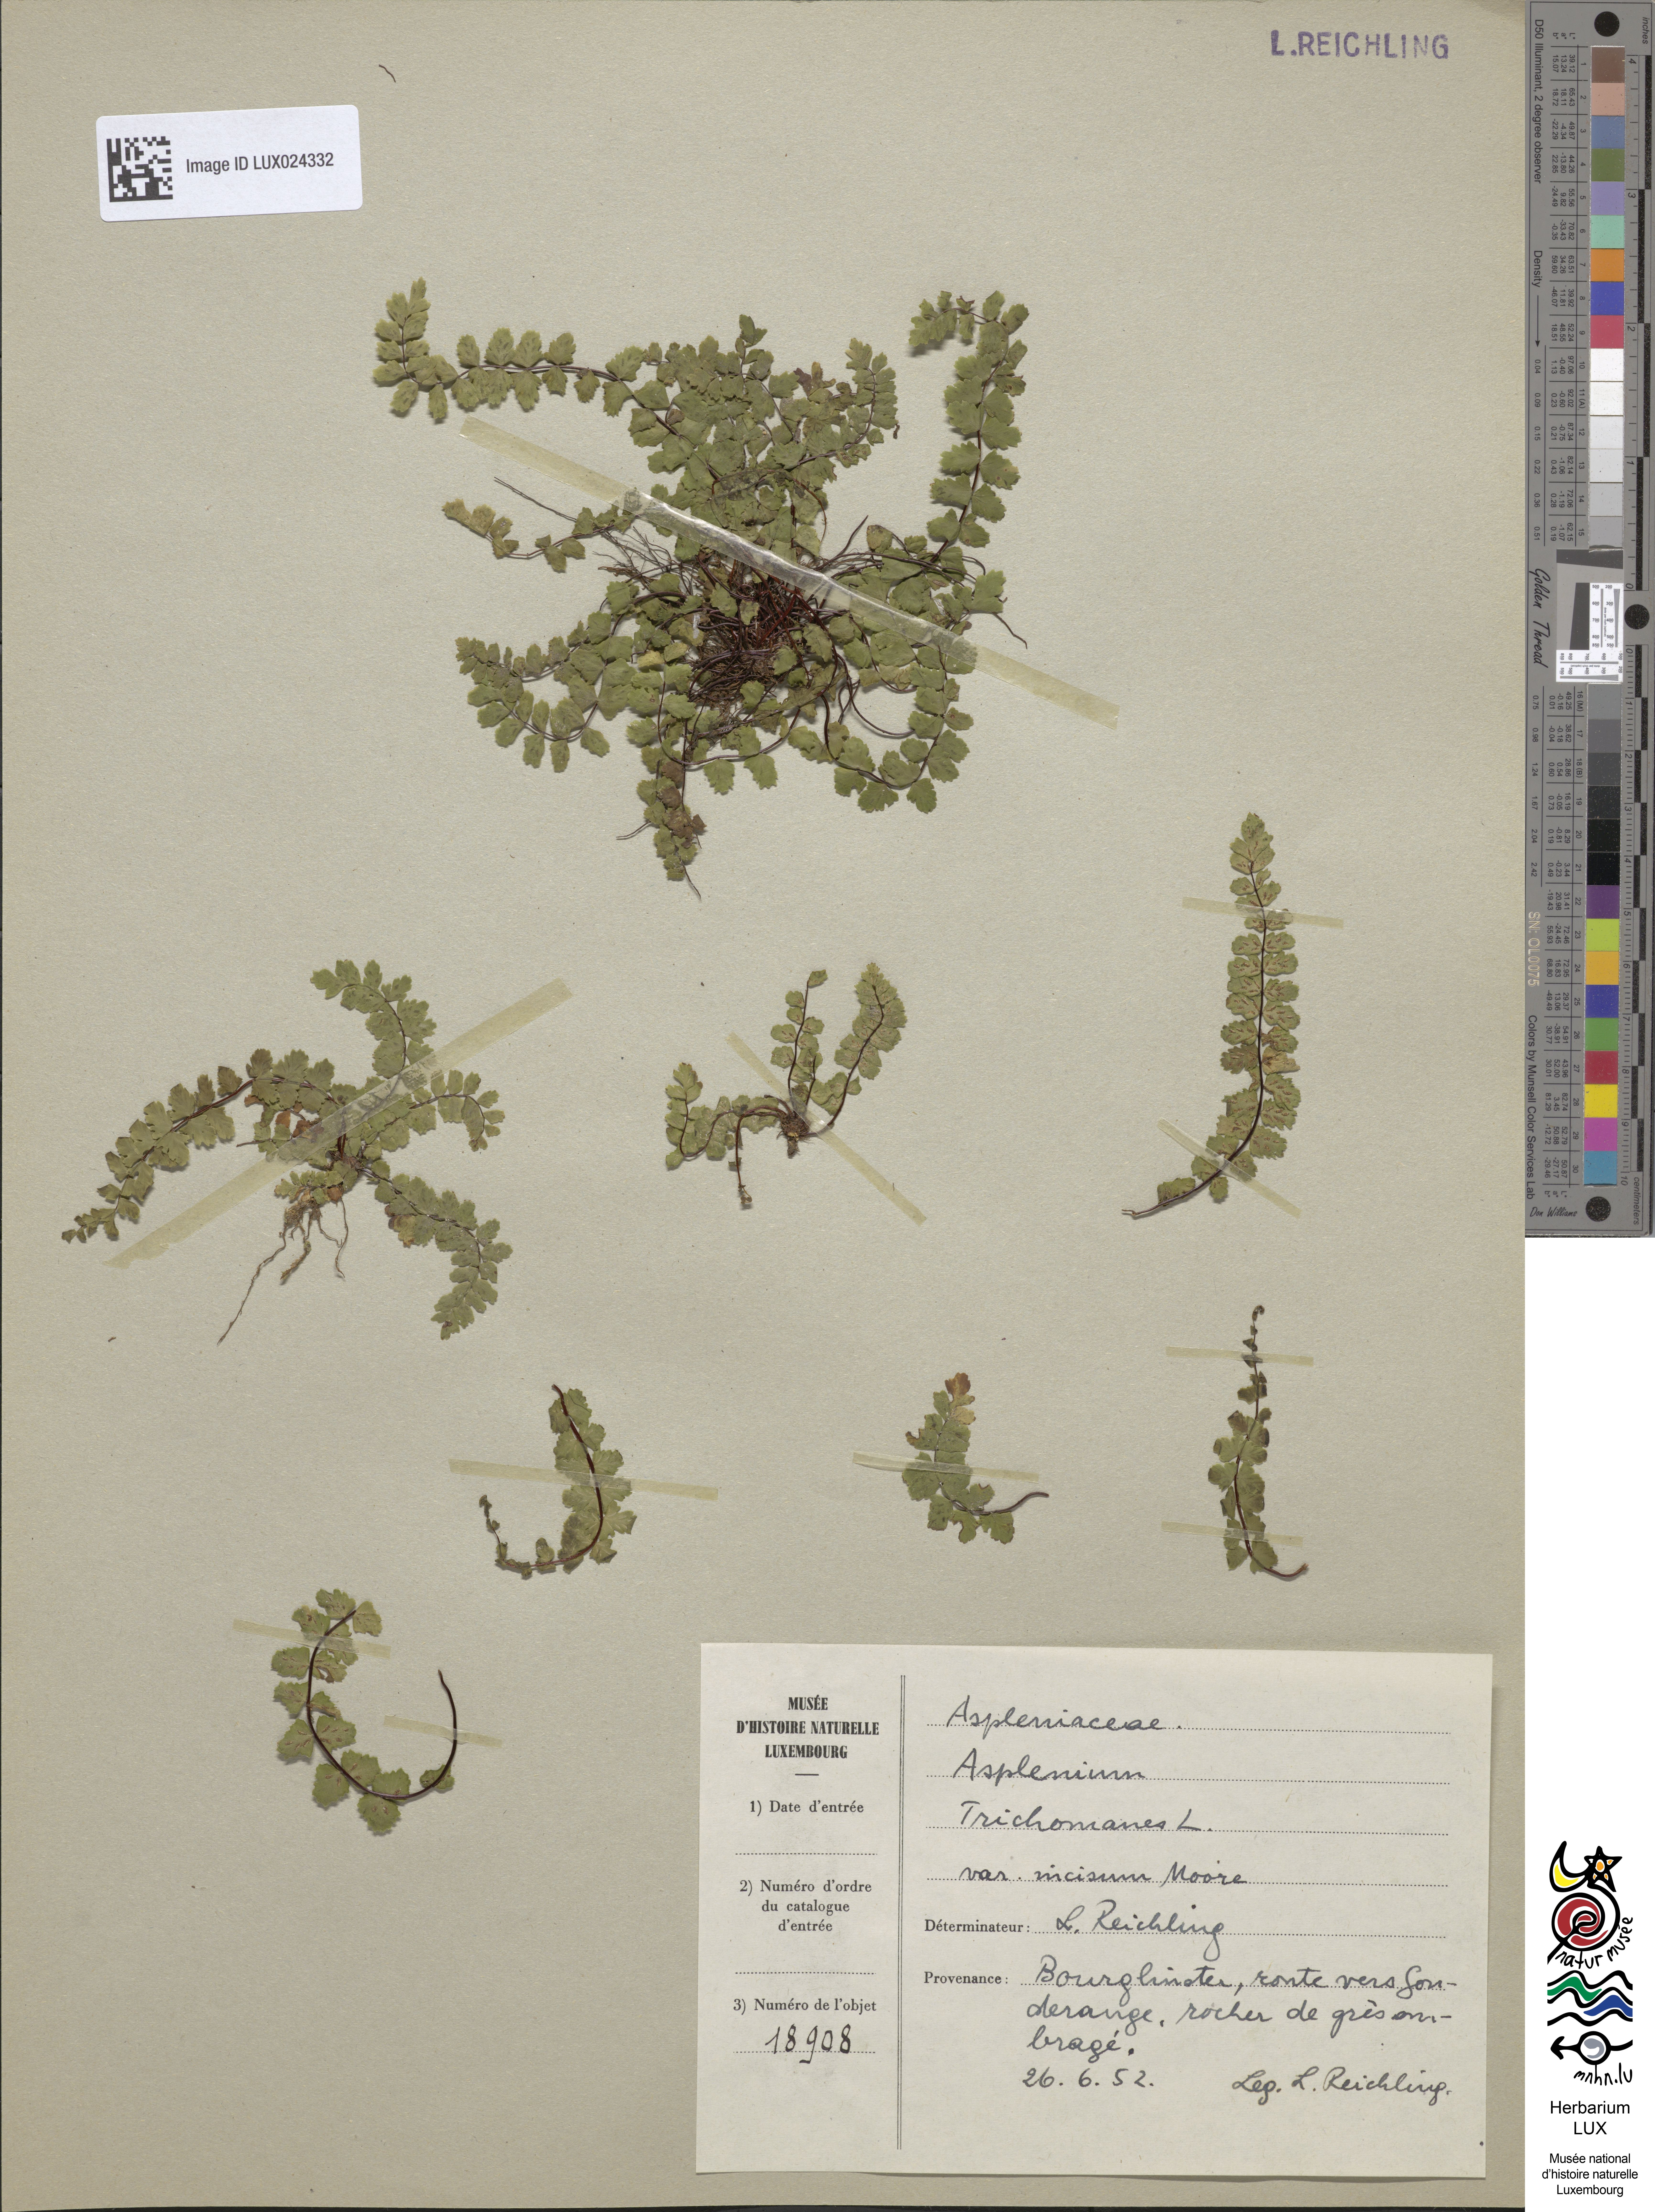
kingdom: Plantae
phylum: Tracheophyta
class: Polypodiopsida
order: Polypodiales
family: Aspleniaceae
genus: Asplenium
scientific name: Asplenium trichomanes
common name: Maidenhair spleenwort
